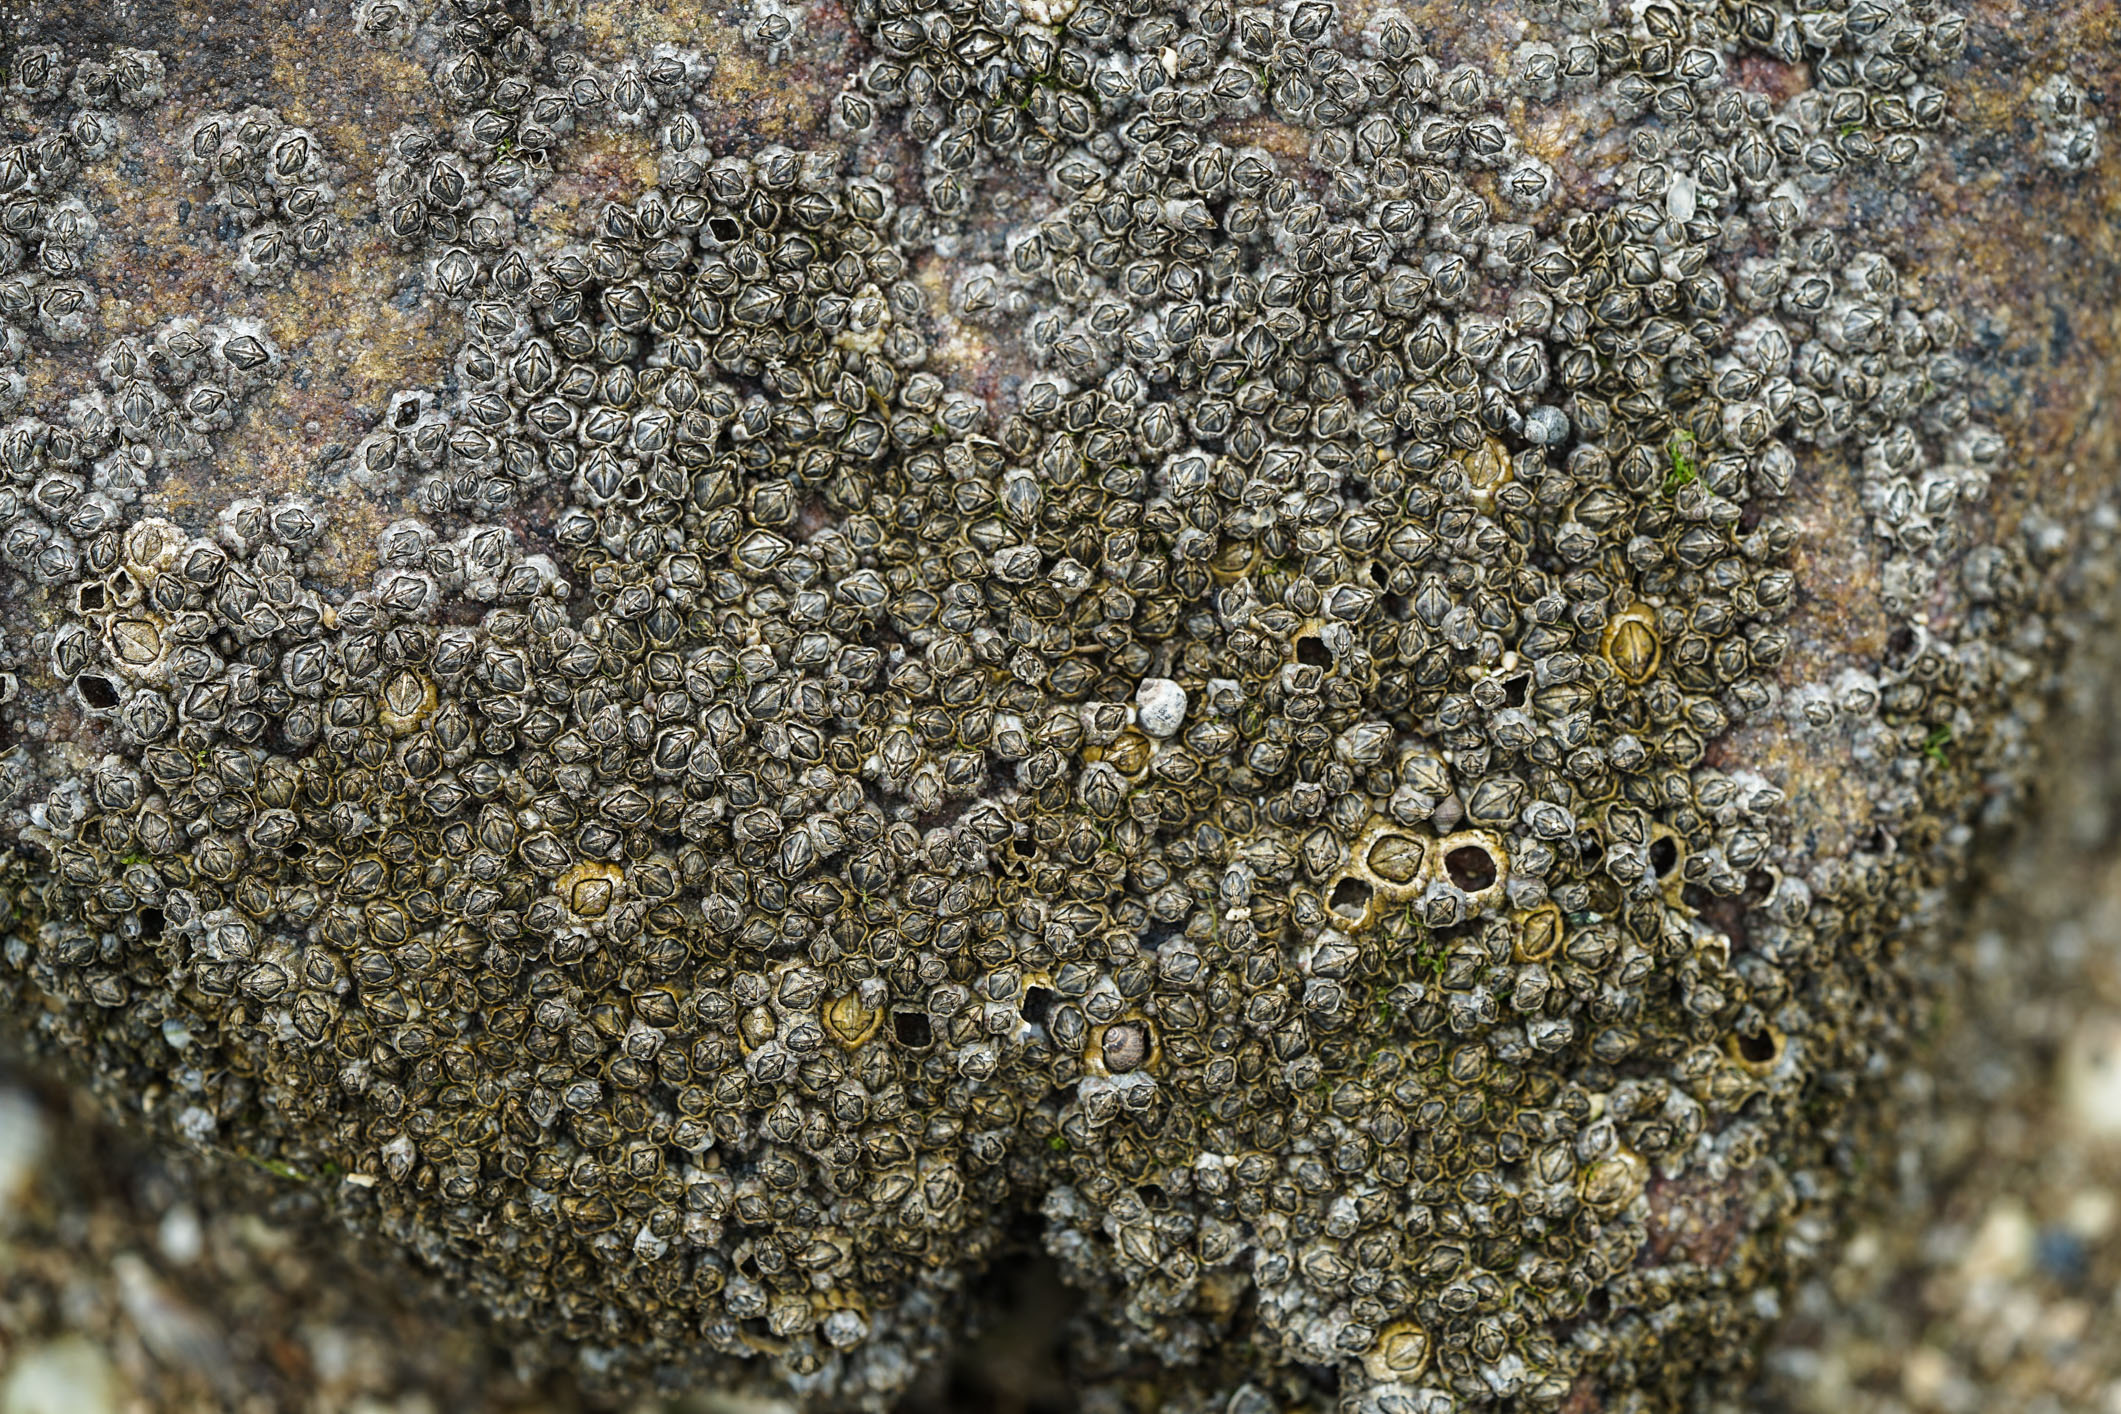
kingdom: Animalia
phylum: Arthropoda
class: Maxillopoda
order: Sessilia
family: Archaeobalanidae
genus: Semibalanus
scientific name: Semibalanus balanoides
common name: Acorn barnacle
